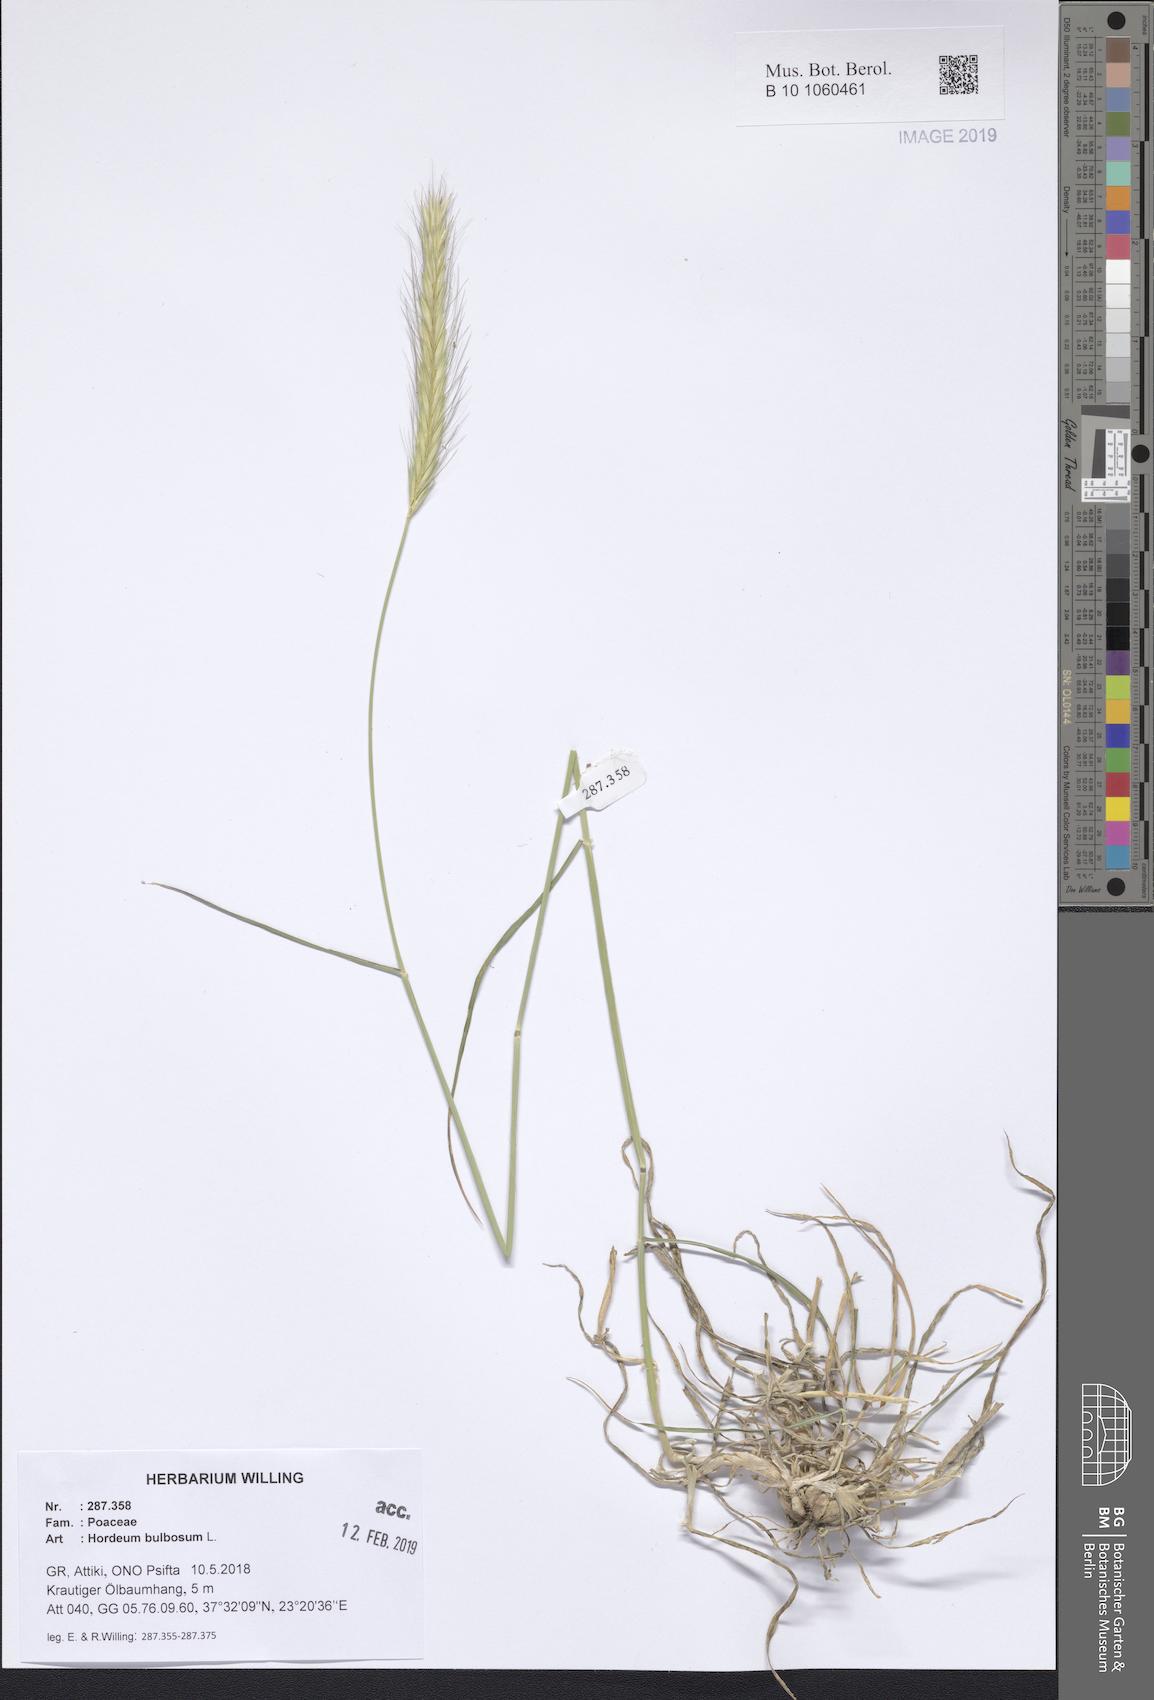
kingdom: Plantae
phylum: Tracheophyta
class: Liliopsida
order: Poales
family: Poaceae
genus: Hordeum
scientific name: Hordeum bulbosum
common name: Bulbous barley
